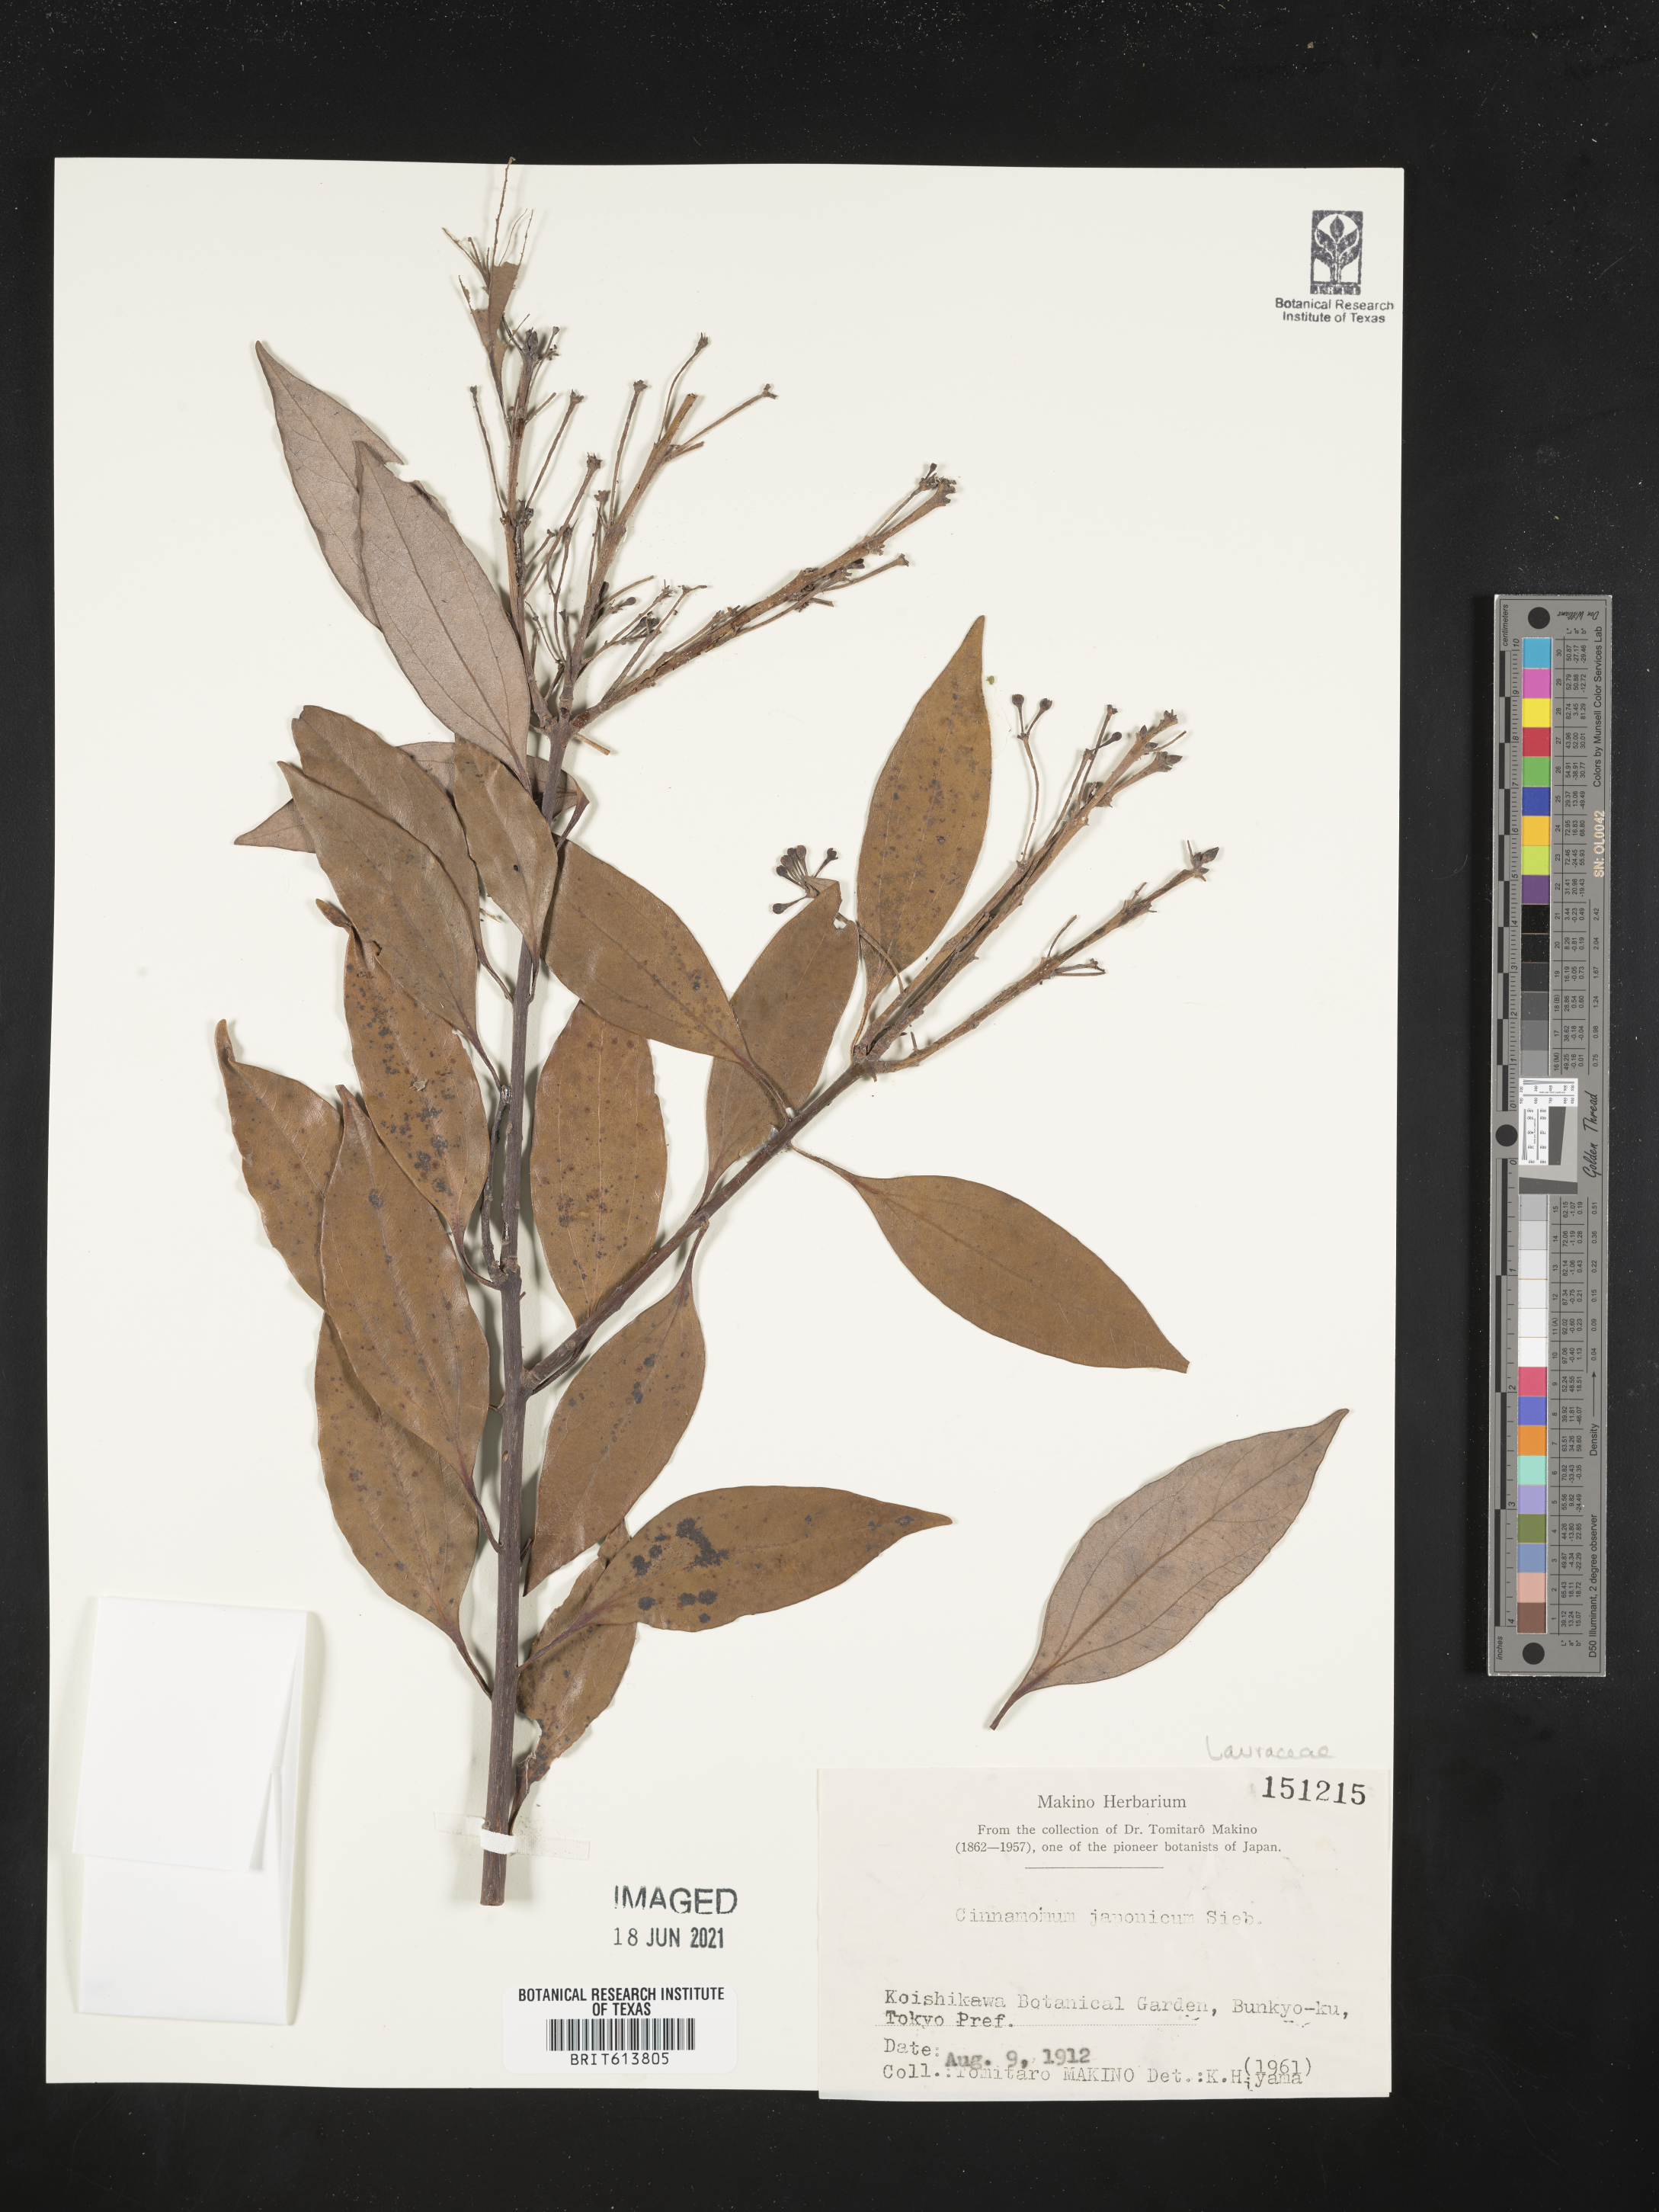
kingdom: Plantae
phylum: Tracheophyta
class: Magnoliopsida
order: Laurales
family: Lauraceae
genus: Cinnamomum
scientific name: Cinnamomum chekiangense
